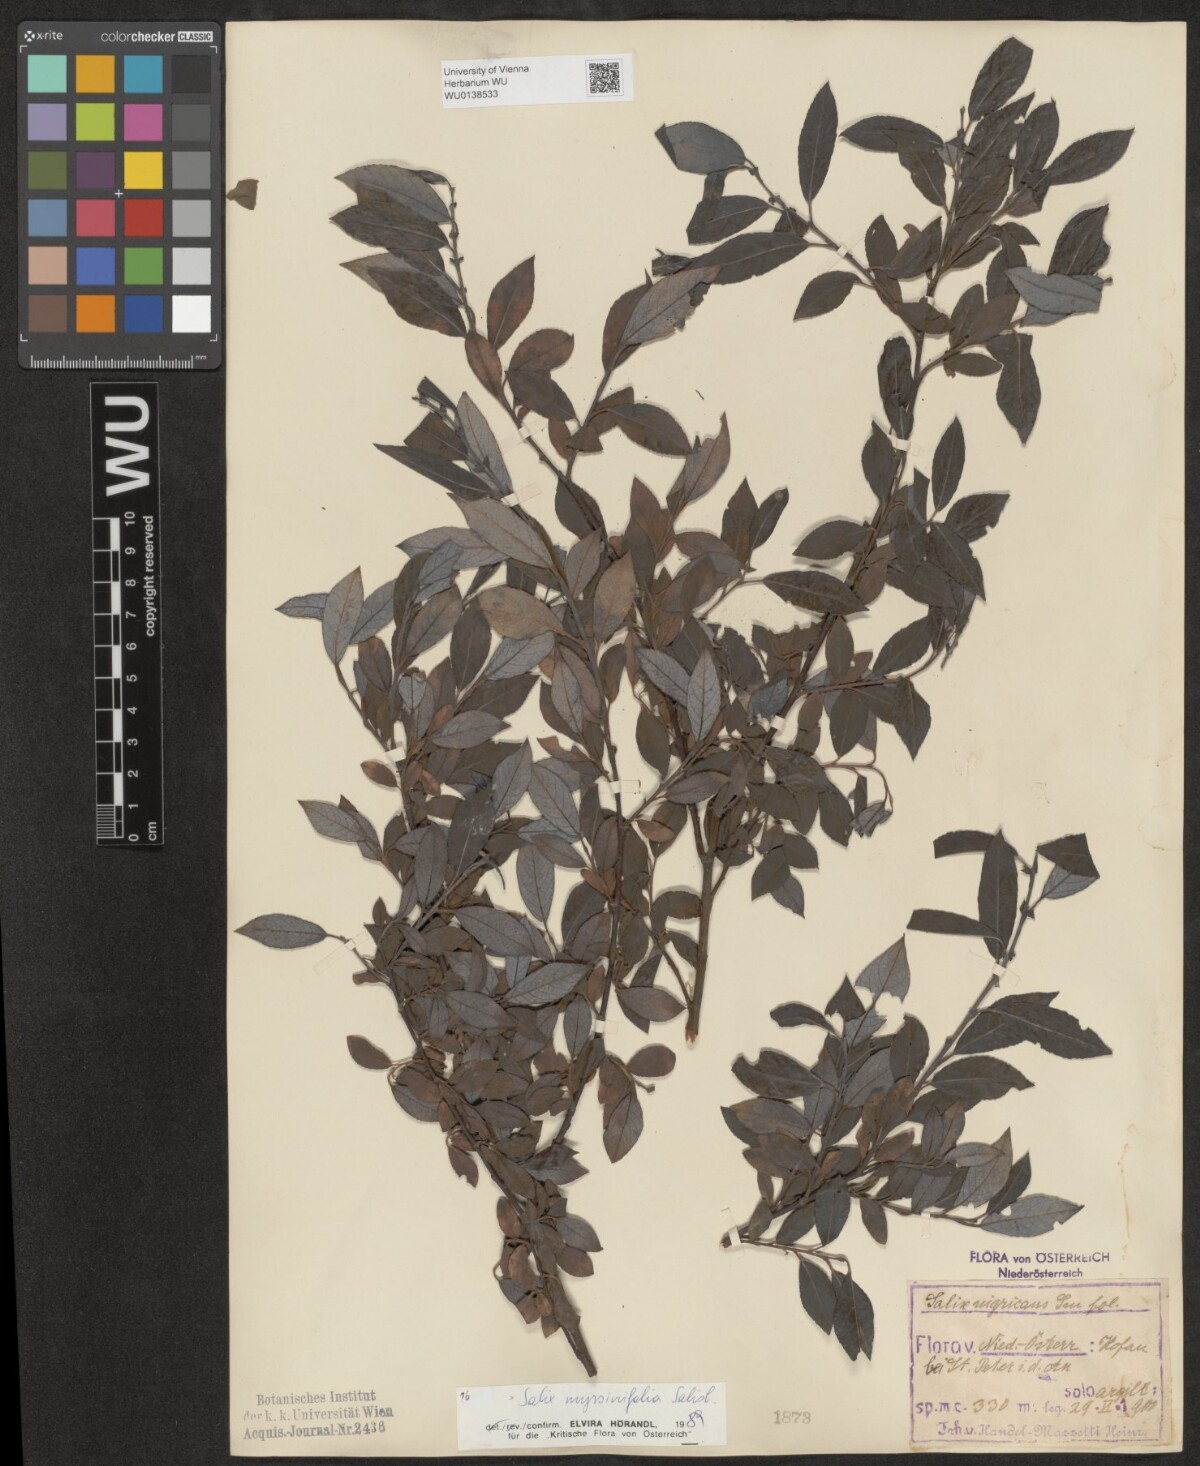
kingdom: Plantae
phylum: Tracheophyta
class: Magnoliopsida
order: Malpighiales
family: Salicaceae
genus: Salix
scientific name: Salix myrsinifolia
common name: Dark-leaved willow
